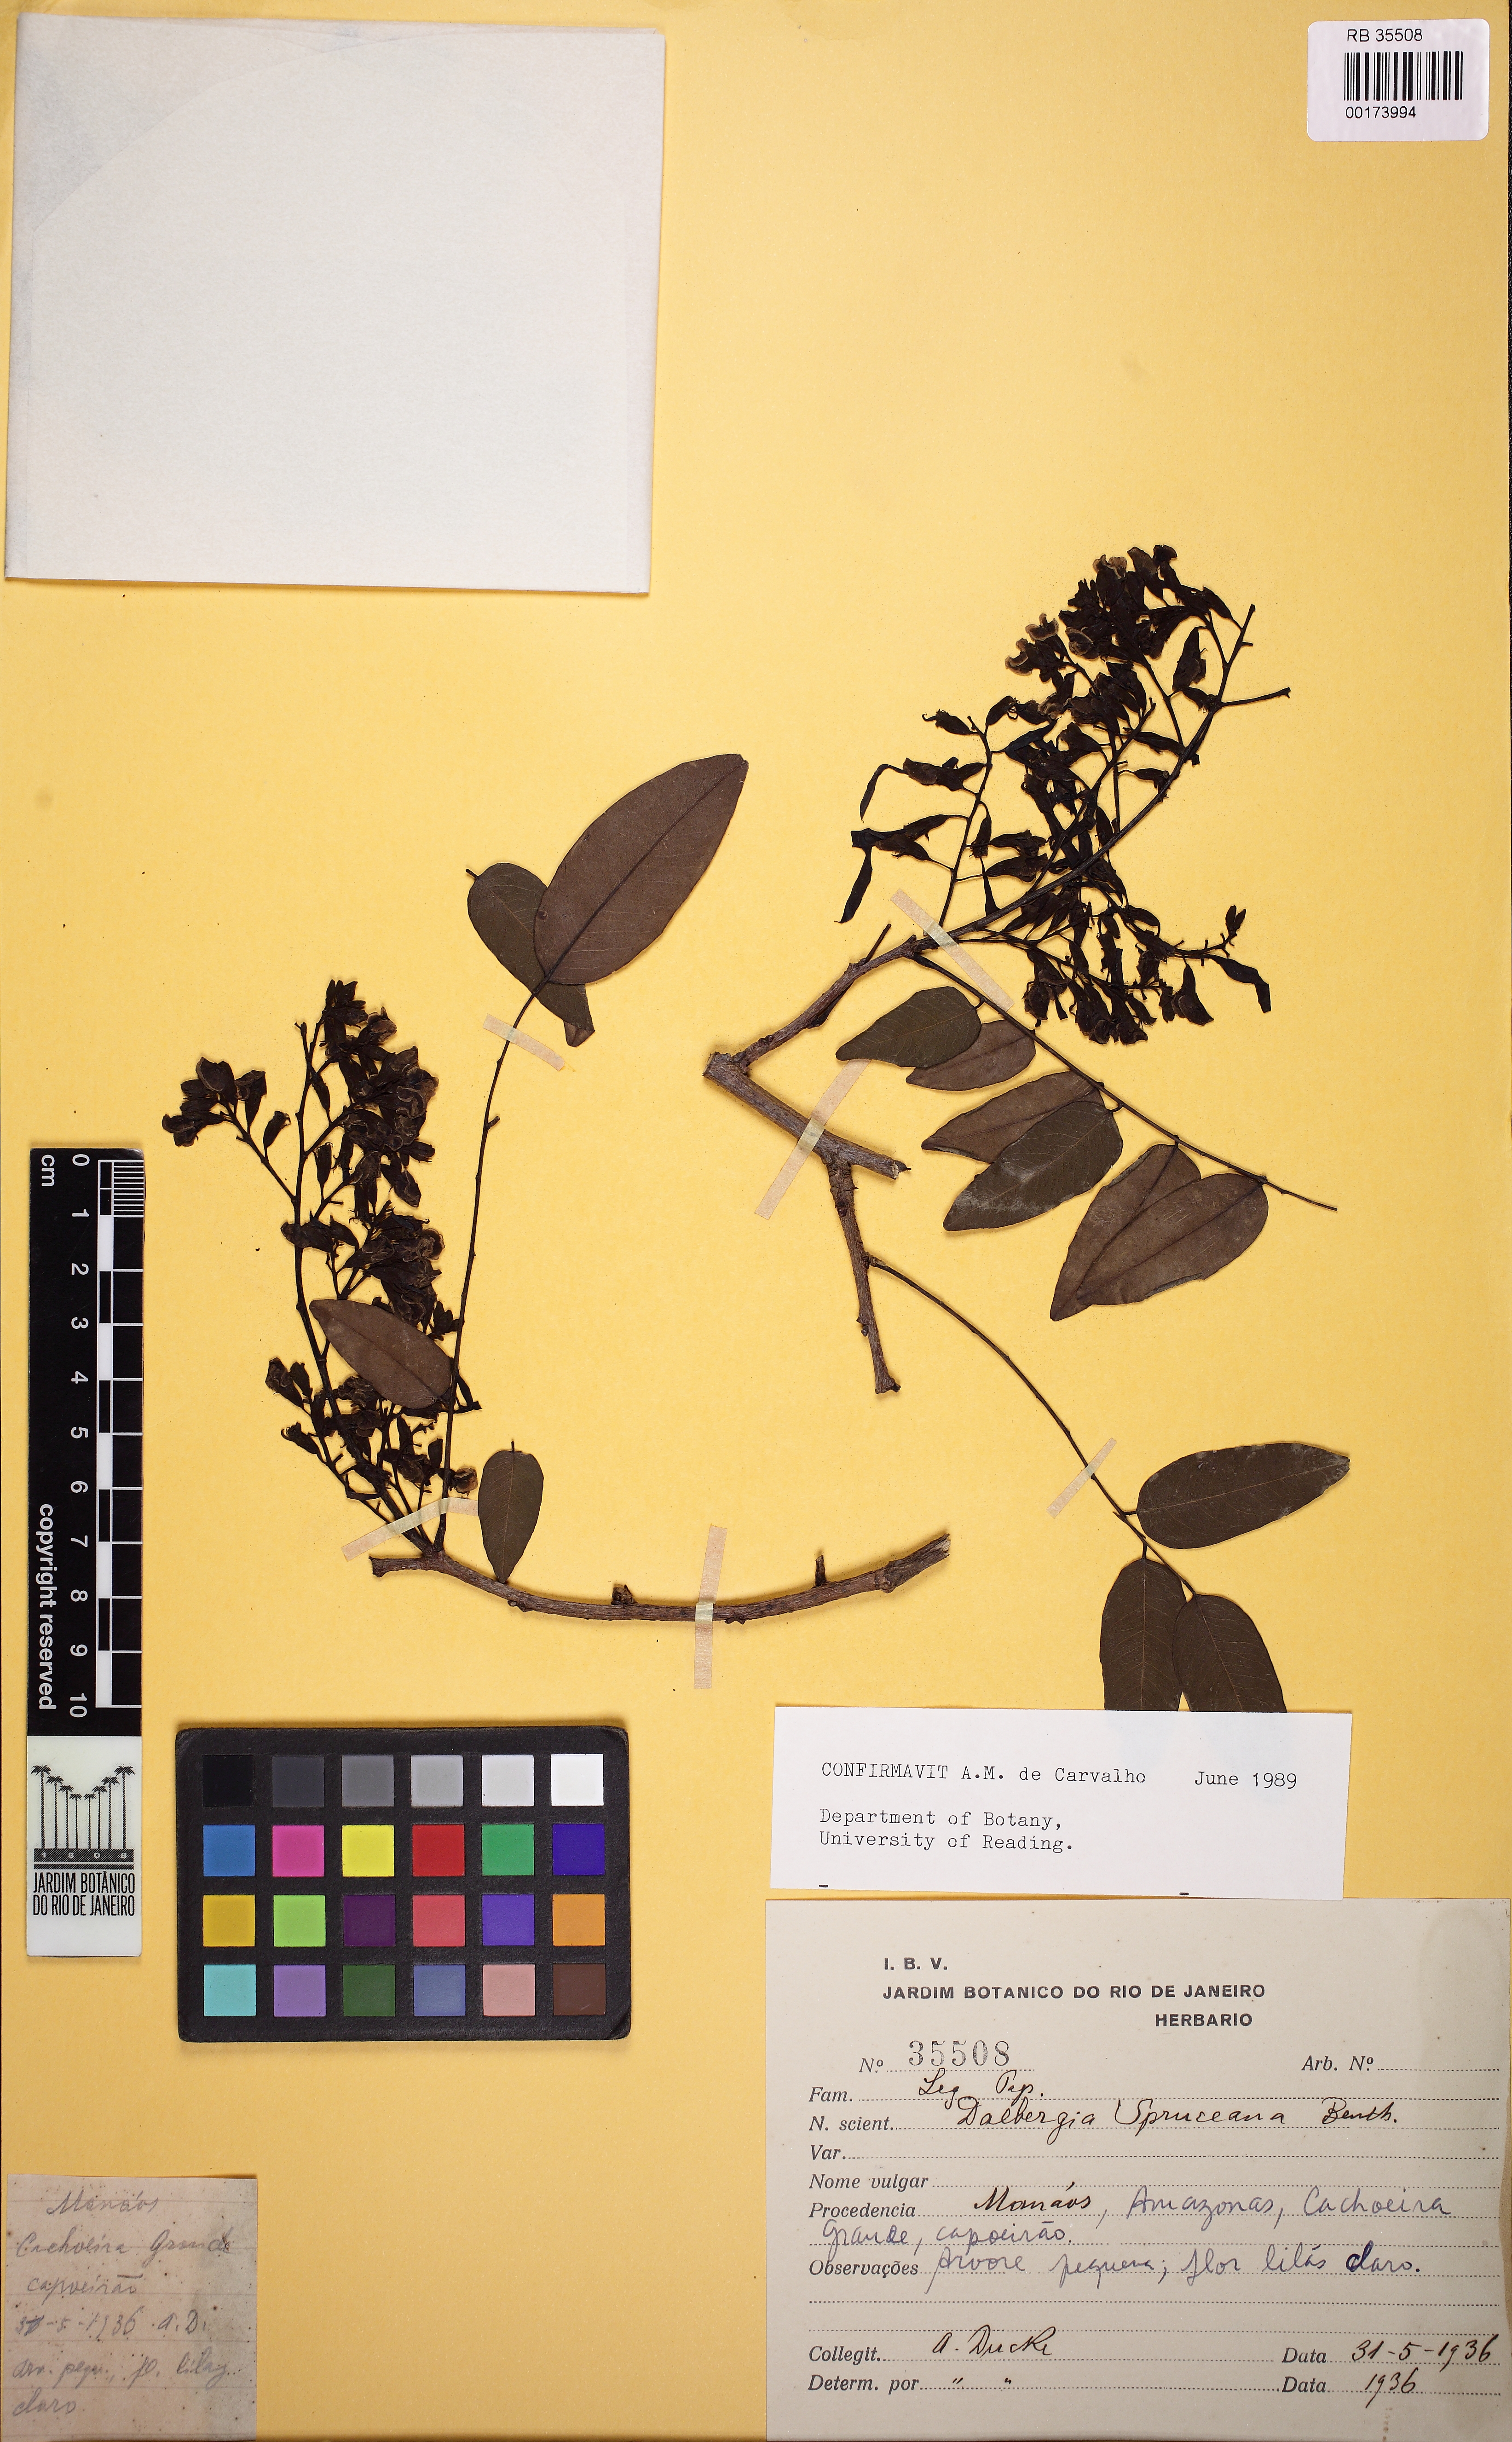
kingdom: Plantae
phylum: Tracheophyta
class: Magnoliopsida
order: Fabales
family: Fabaceae
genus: Dalbergia
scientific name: Dalbergia spruceana
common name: Amazon rosewood
